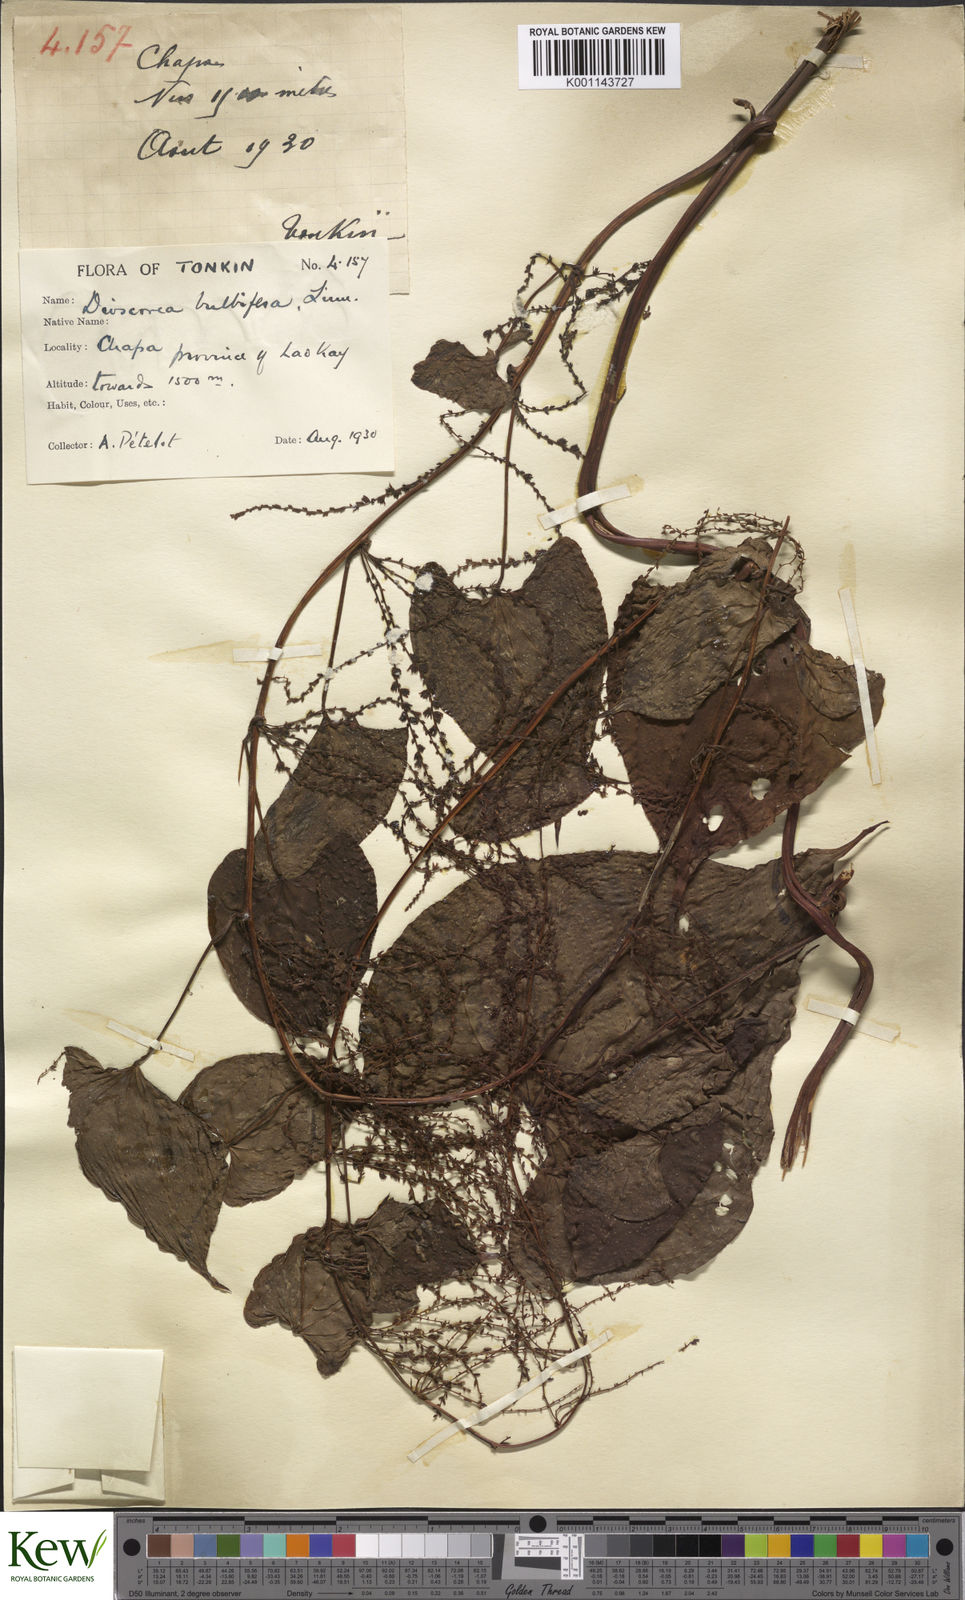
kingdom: Plantae
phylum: Tracheophyta
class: Liliopsida
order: Dioscoreales
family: Dioscoreaceae
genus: Dioscorea
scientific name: Dioscorea bulbifera
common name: Air yam
